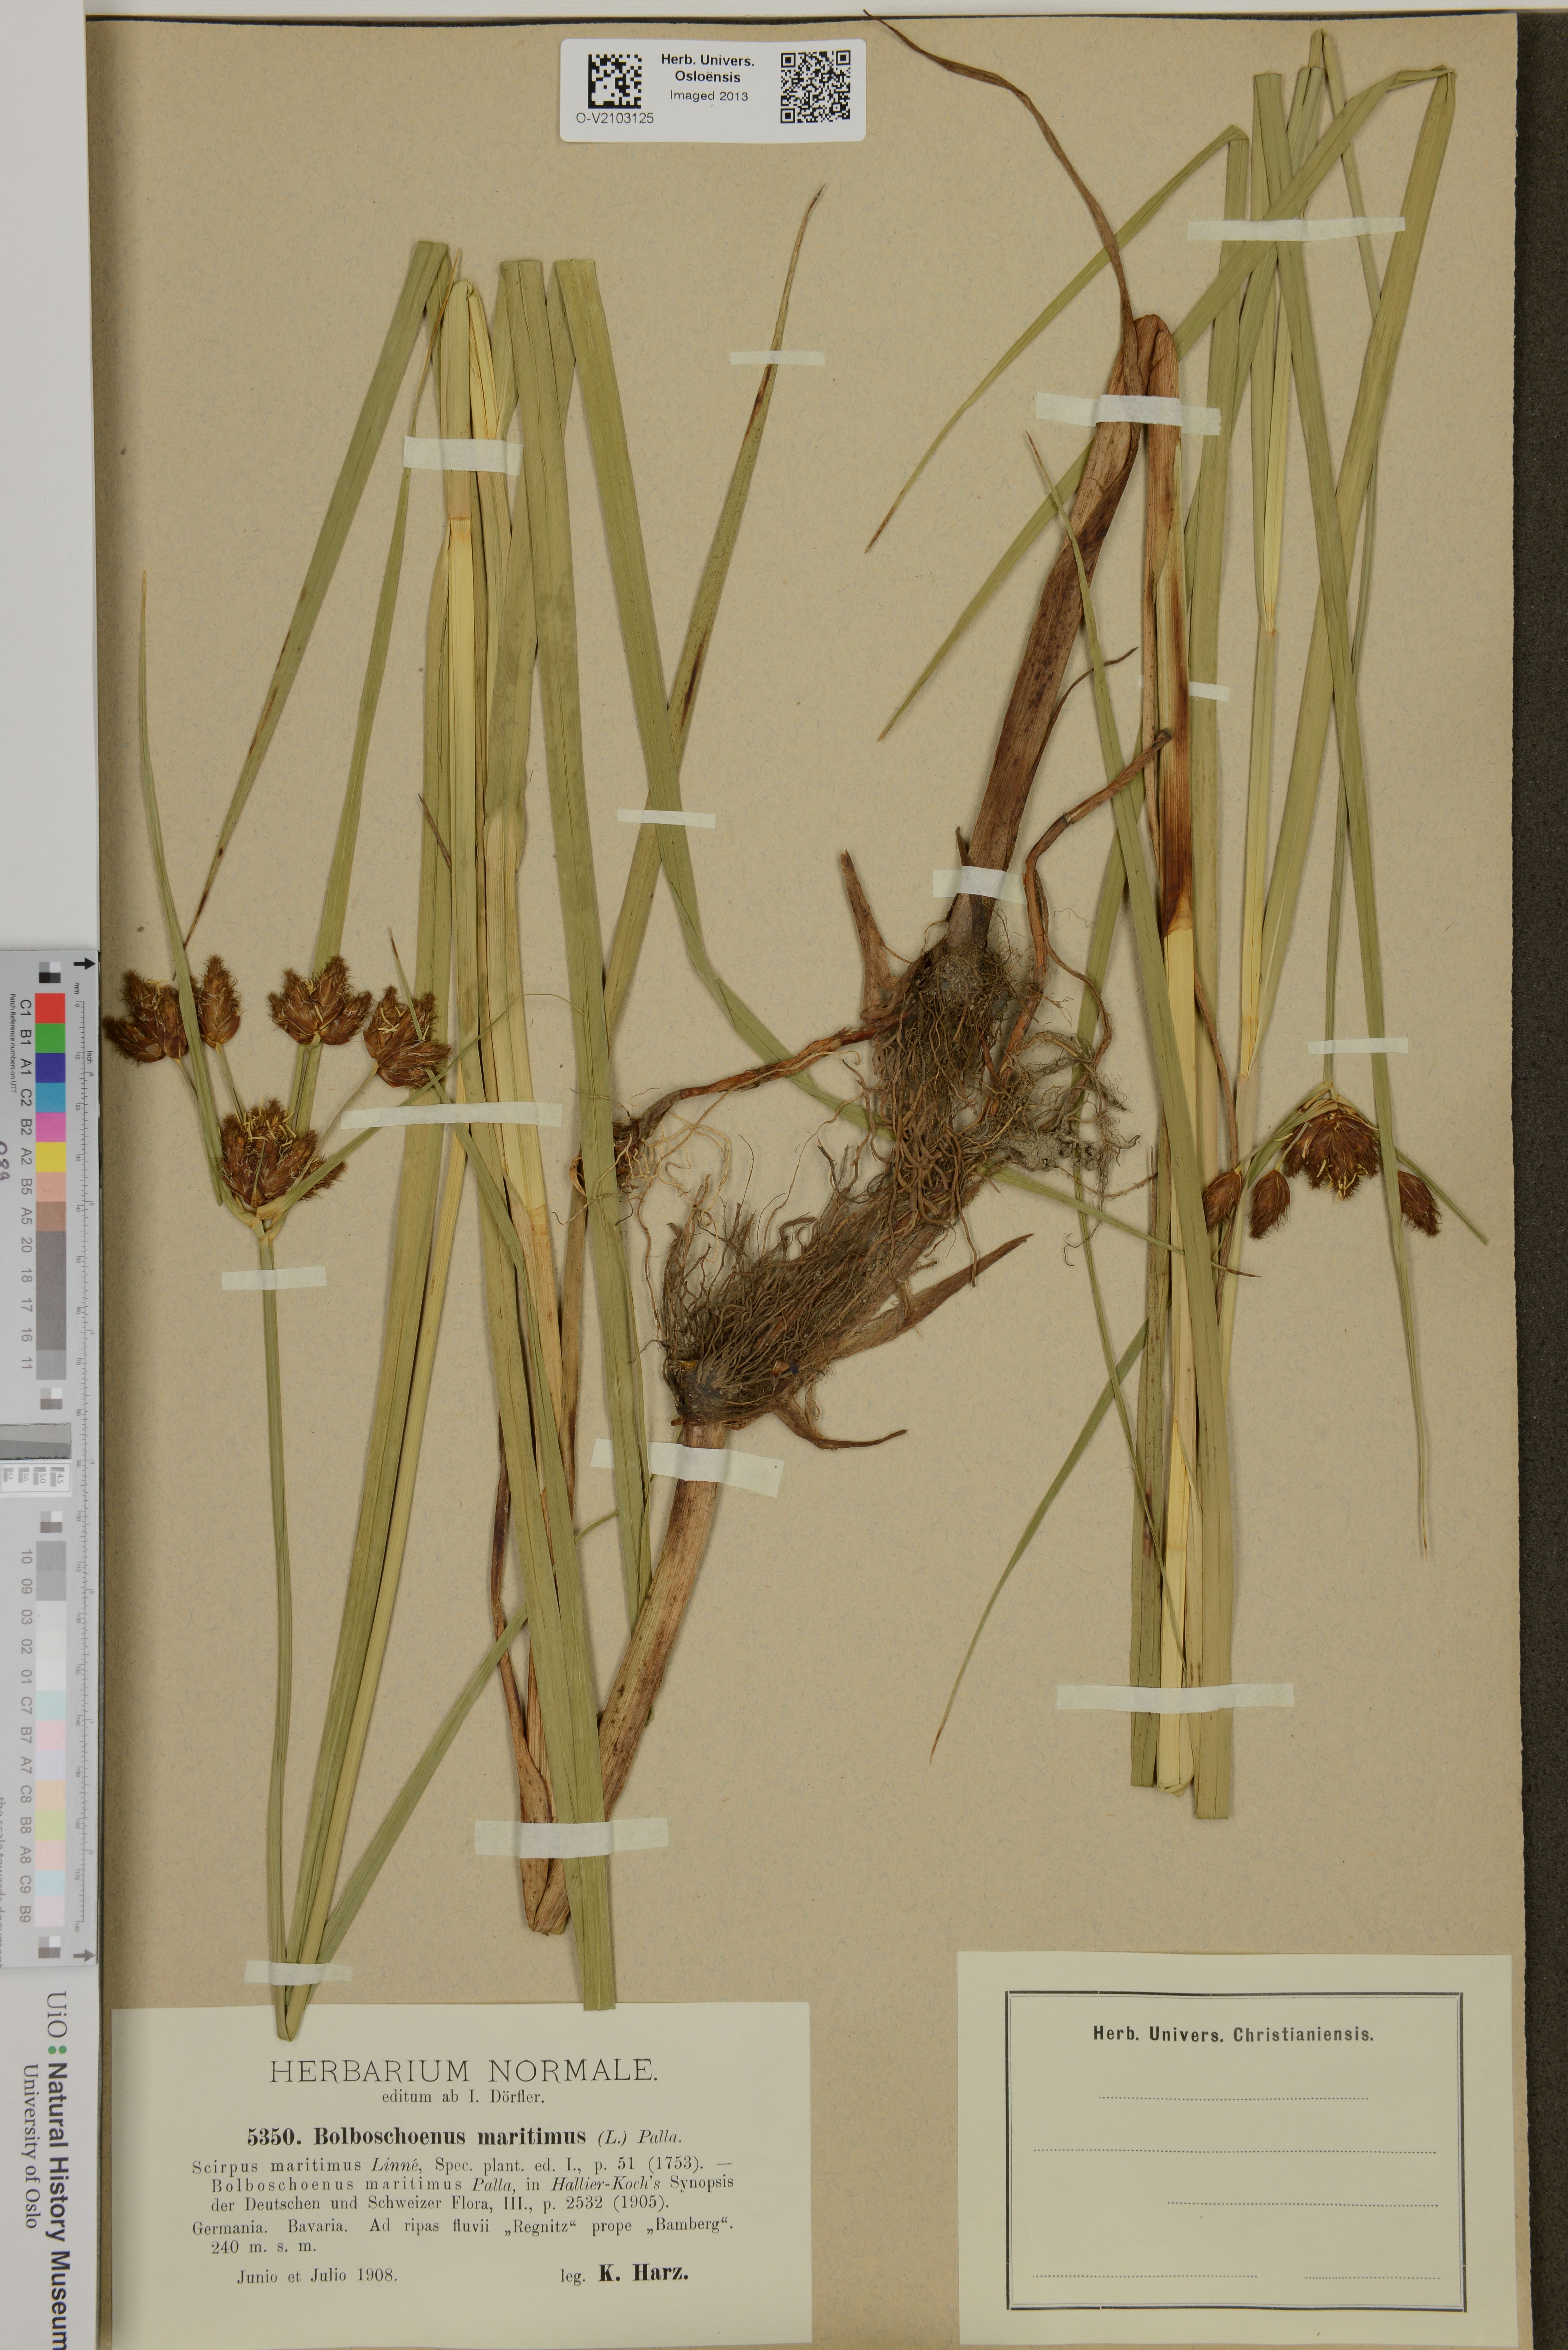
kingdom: Plantae
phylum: Tracheophyta
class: Liliopsida
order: Poales
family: Cyperaceae
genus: Bolboschoenus
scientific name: Bolboschoenus maritimus
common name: Sea club-rush
